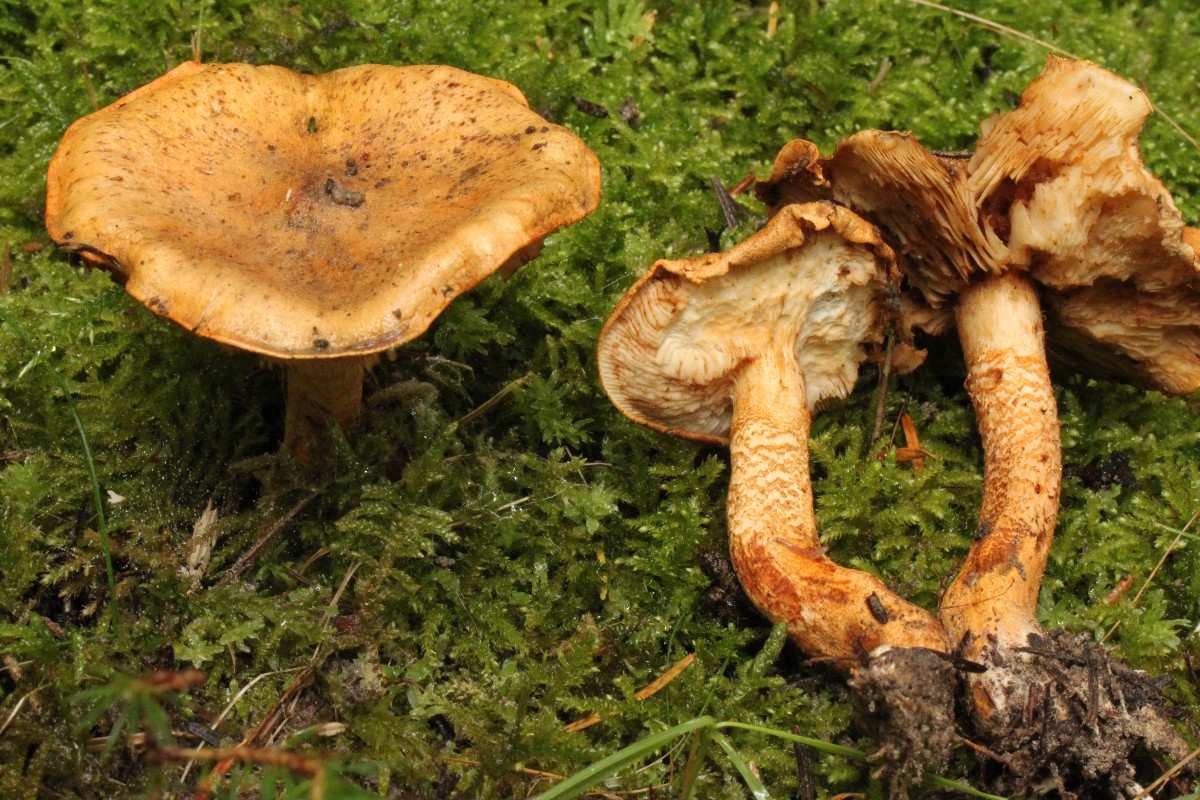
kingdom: Fungi
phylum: Basidiomycota
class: Agaricomycetes
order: Agaricales
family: Tricholomataceae
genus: Tricholoma
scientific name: Tricholoma aurantium
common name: orangegul ridderhat
